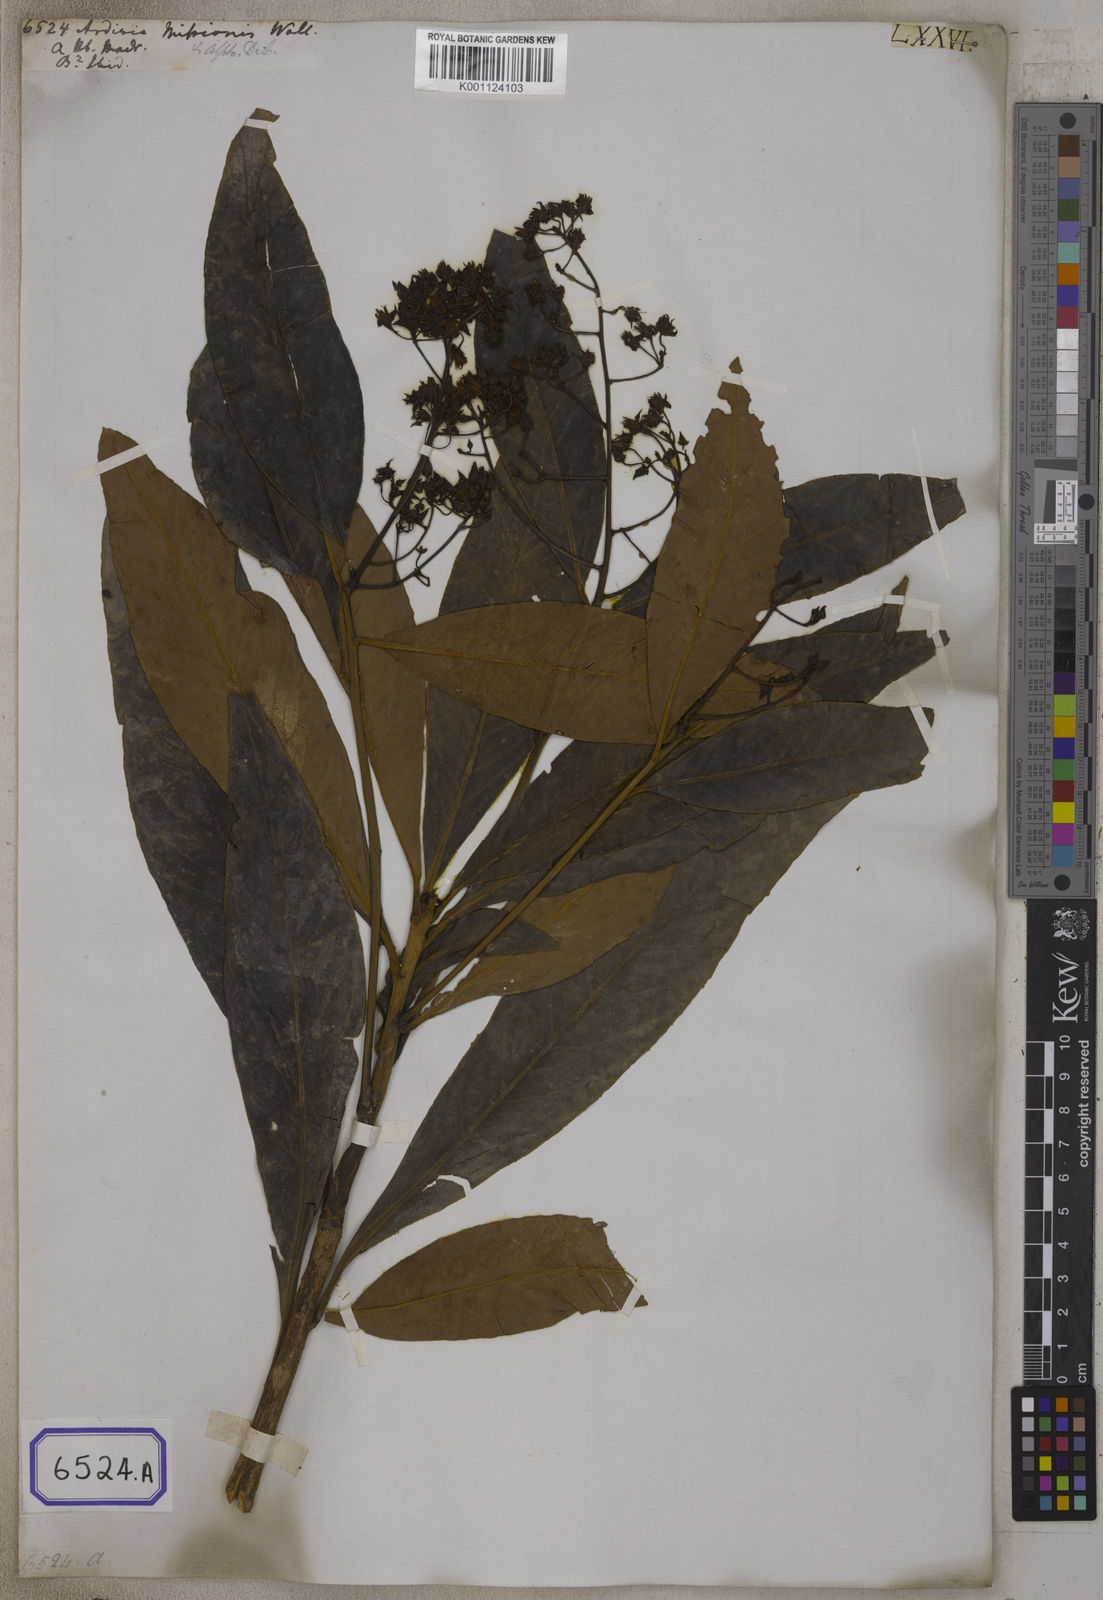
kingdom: Plantae
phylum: Tracheophyta
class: Magnoliopsida
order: Ericales
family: Primulaceae
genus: Ardisia
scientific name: Ardisia
